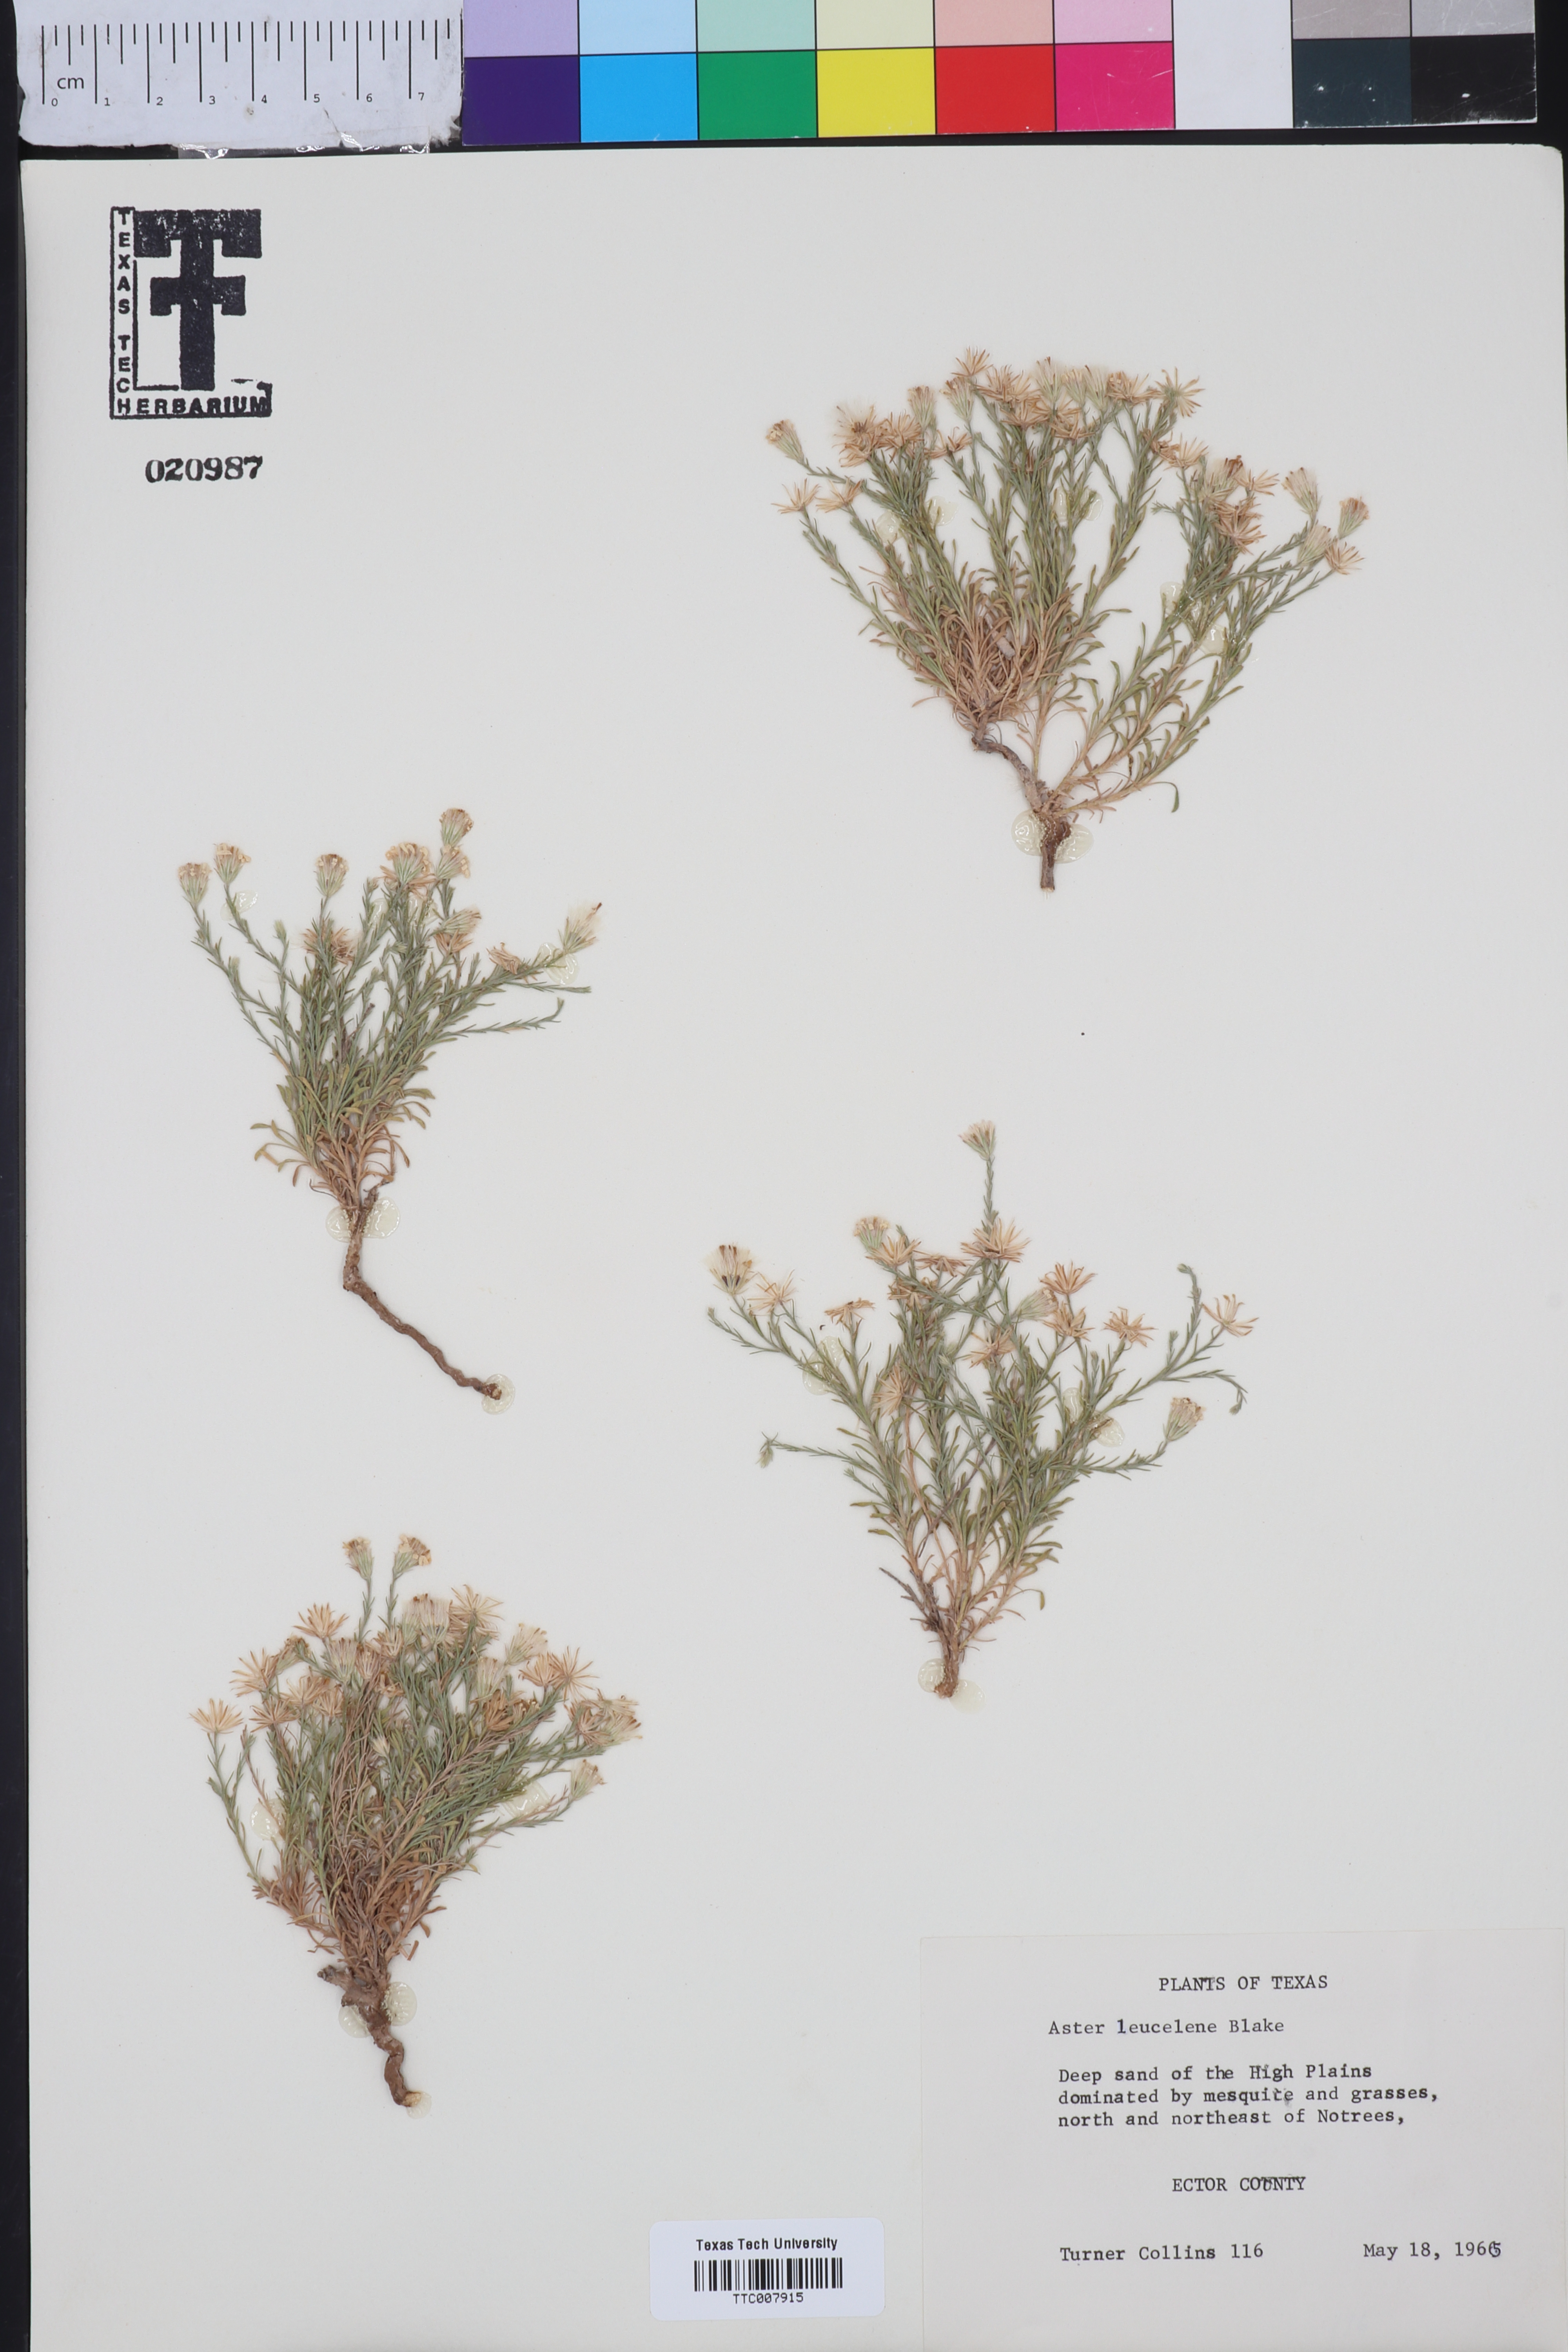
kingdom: Plantae
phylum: Tracheophyta
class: Magnoliopsida
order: Asterales
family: Asteraceae
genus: Chaetopappa
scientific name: Chaetopappa ericoides
